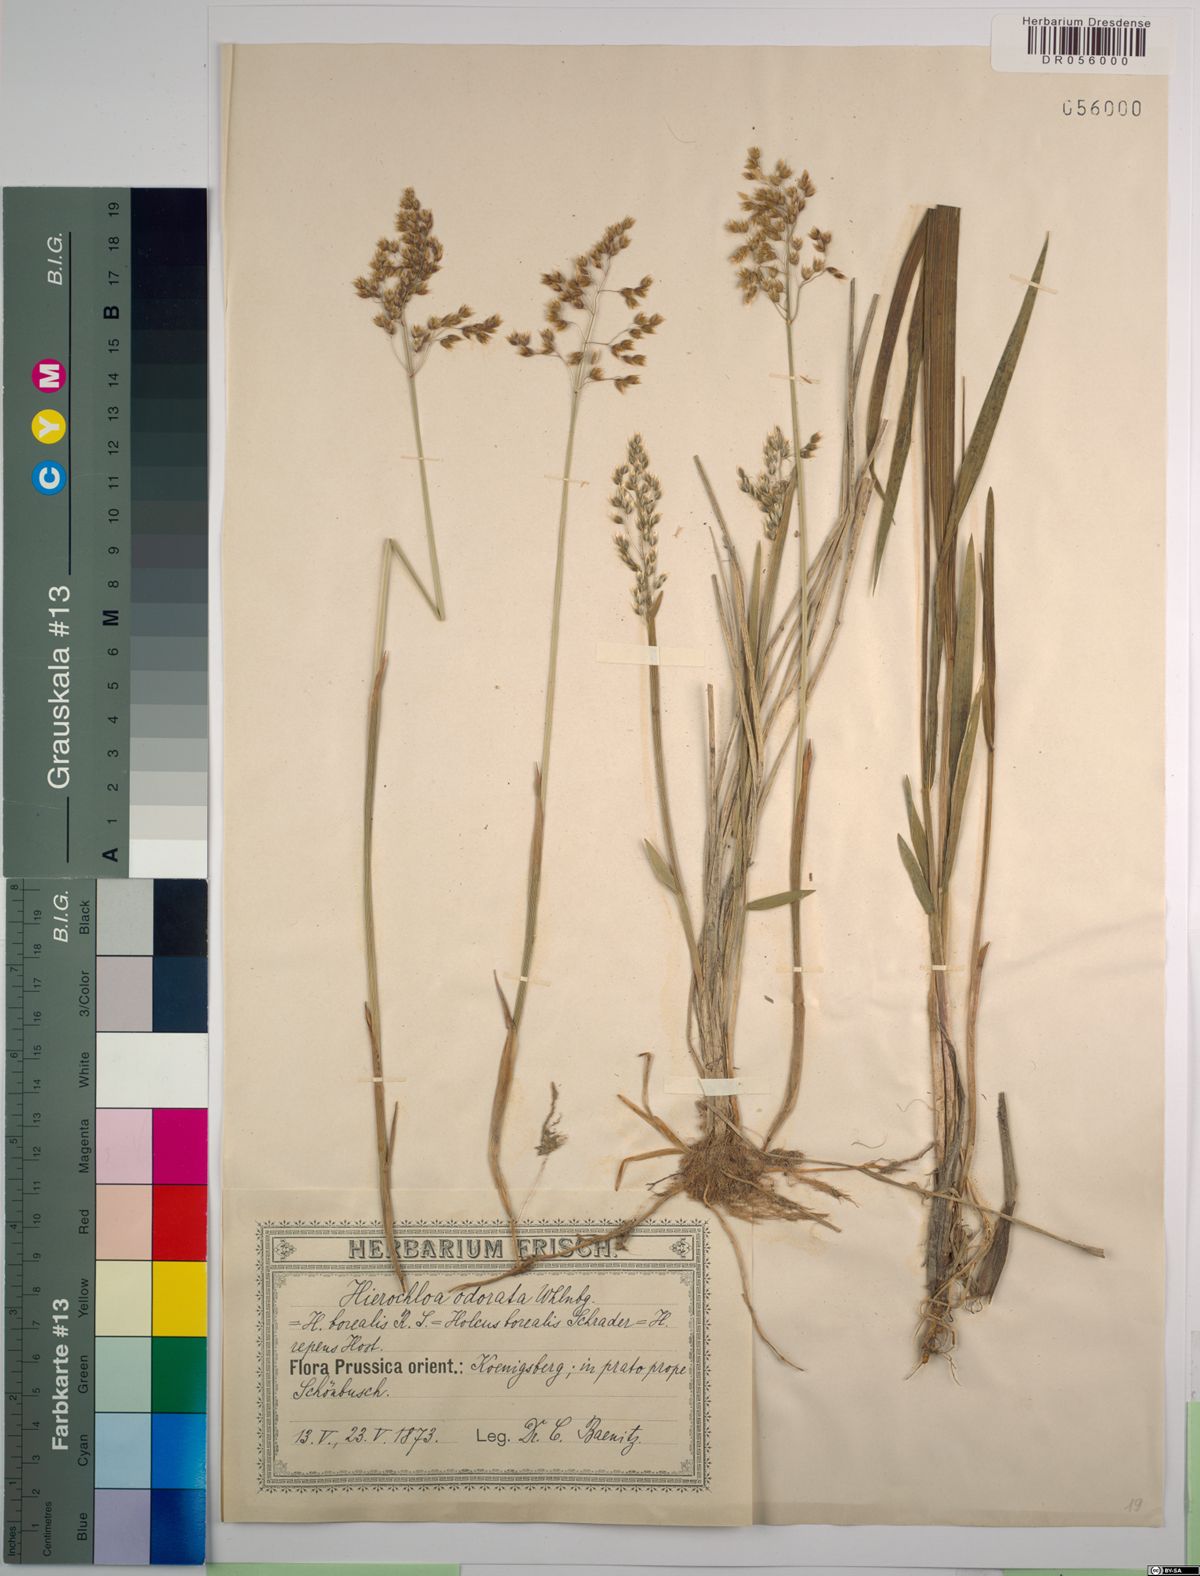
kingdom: Plantae
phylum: Tracheophyta
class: Liliopsida
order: Poales
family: Poaceae
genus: Anthoxanthum
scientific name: Anthoxanthum nitens
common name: Holy grass
